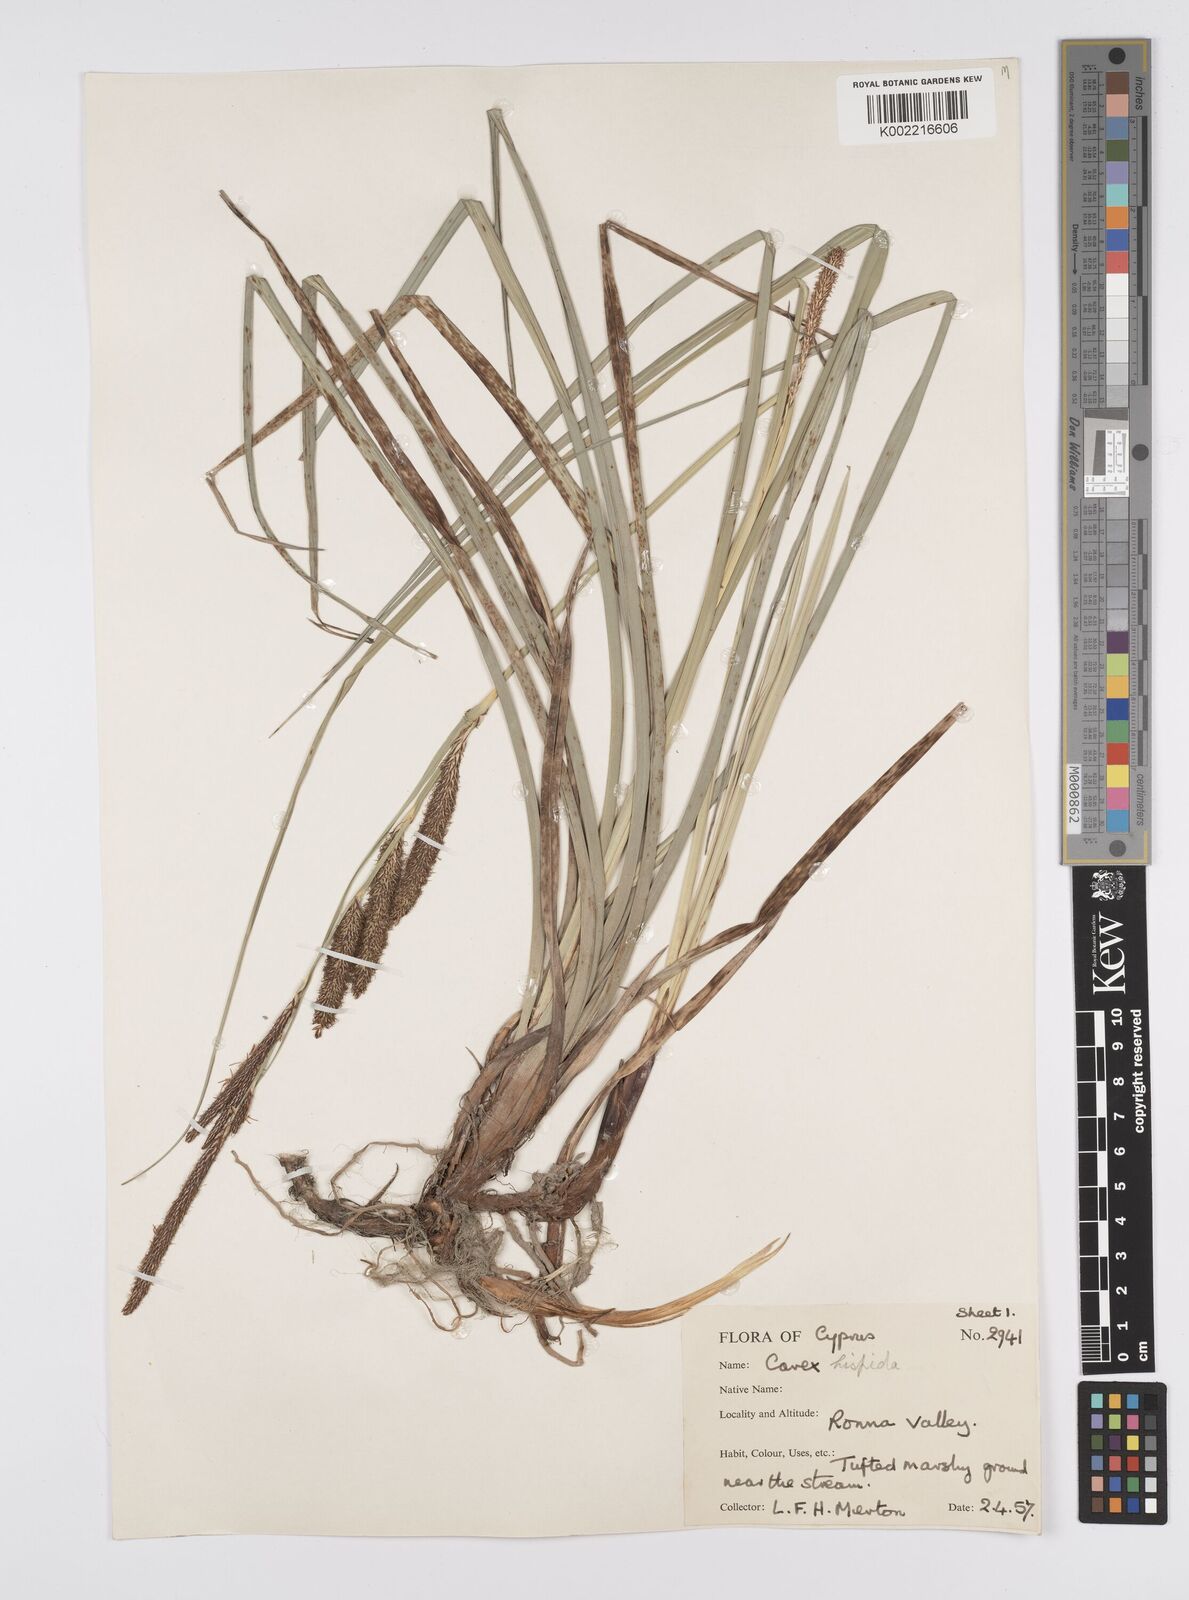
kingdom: Plantae
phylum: Tracheophyta
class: Liliopsida
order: Poales
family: Cyperaceae
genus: Carex
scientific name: Carex hispida
